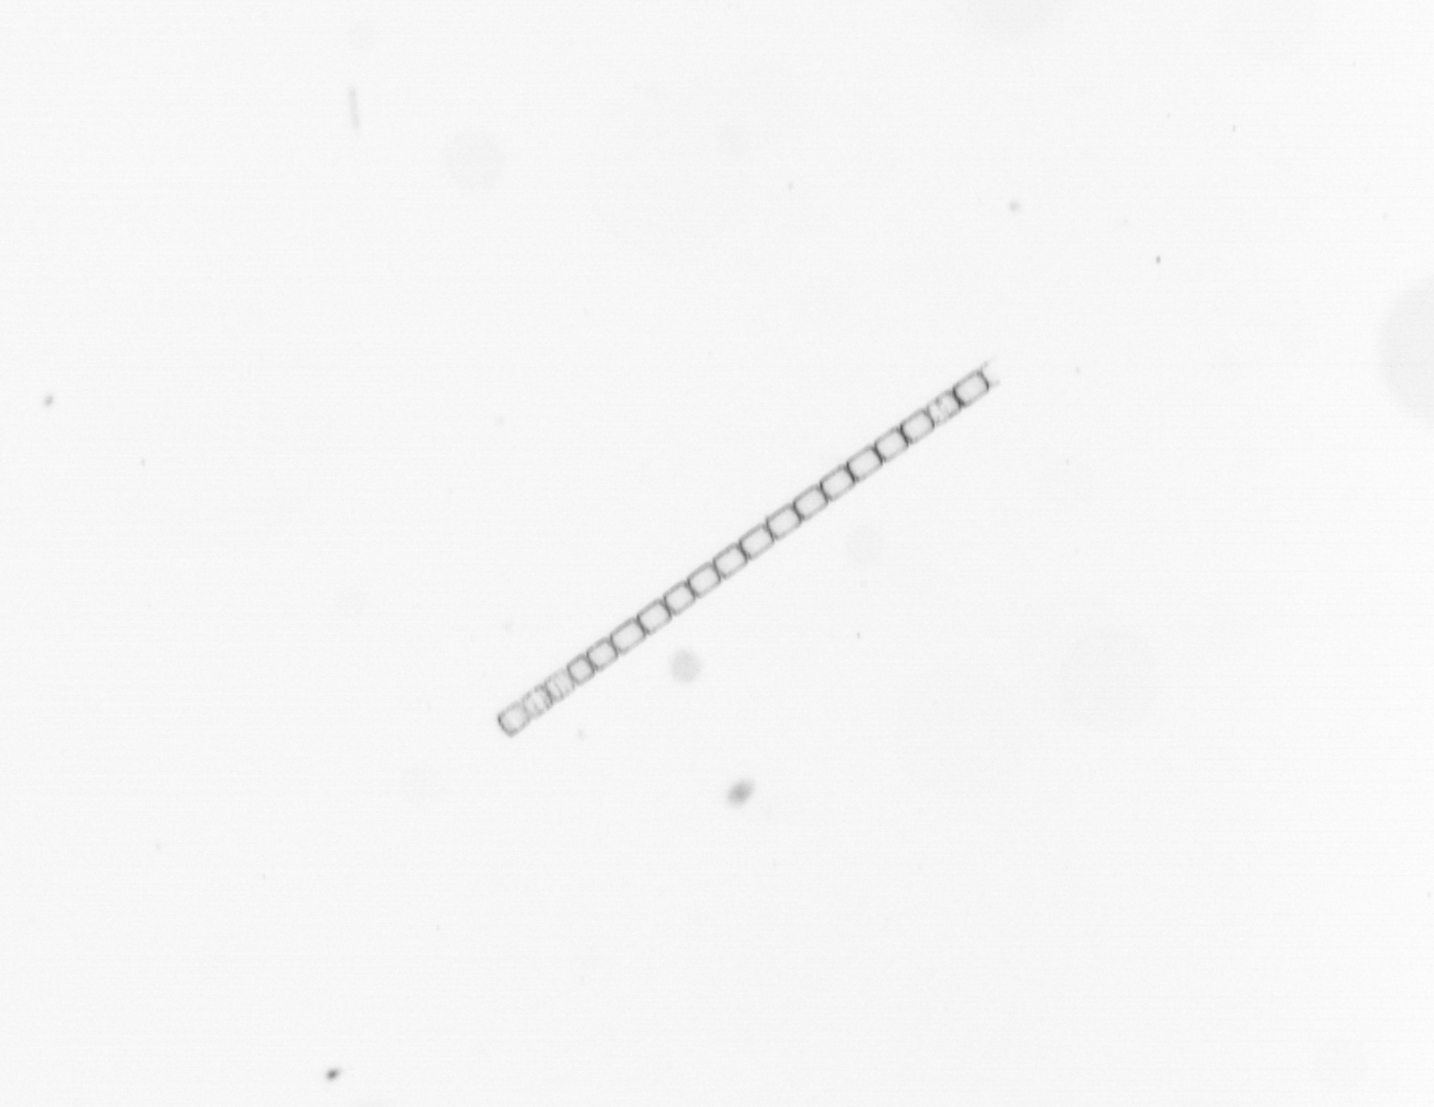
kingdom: Chromista
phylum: Ochrophyta
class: Bacillariophyceae
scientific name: Bacillariophyceae
